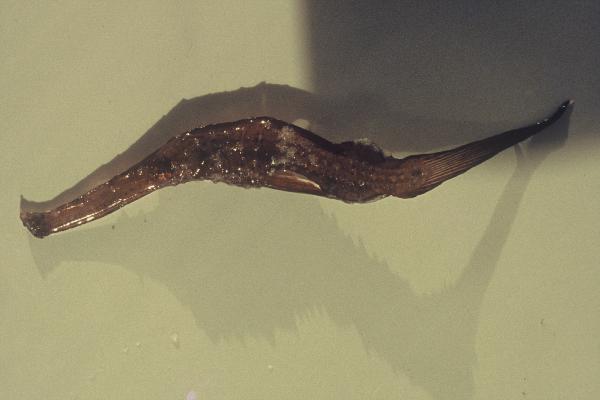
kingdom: Animalia
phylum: Chordata
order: Syngnathiformes
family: Solenostomidae
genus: Solenostomus
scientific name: Solenostomus cyanopterus
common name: Blue-finned ghost pipefish
